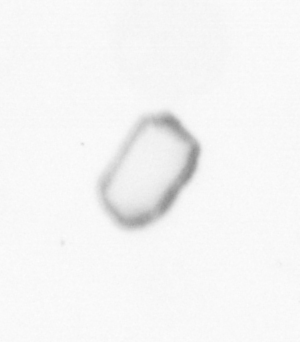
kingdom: Chromista
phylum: Ochrophyta
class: Bacillariophyceae
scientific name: Bacillariophyceae
